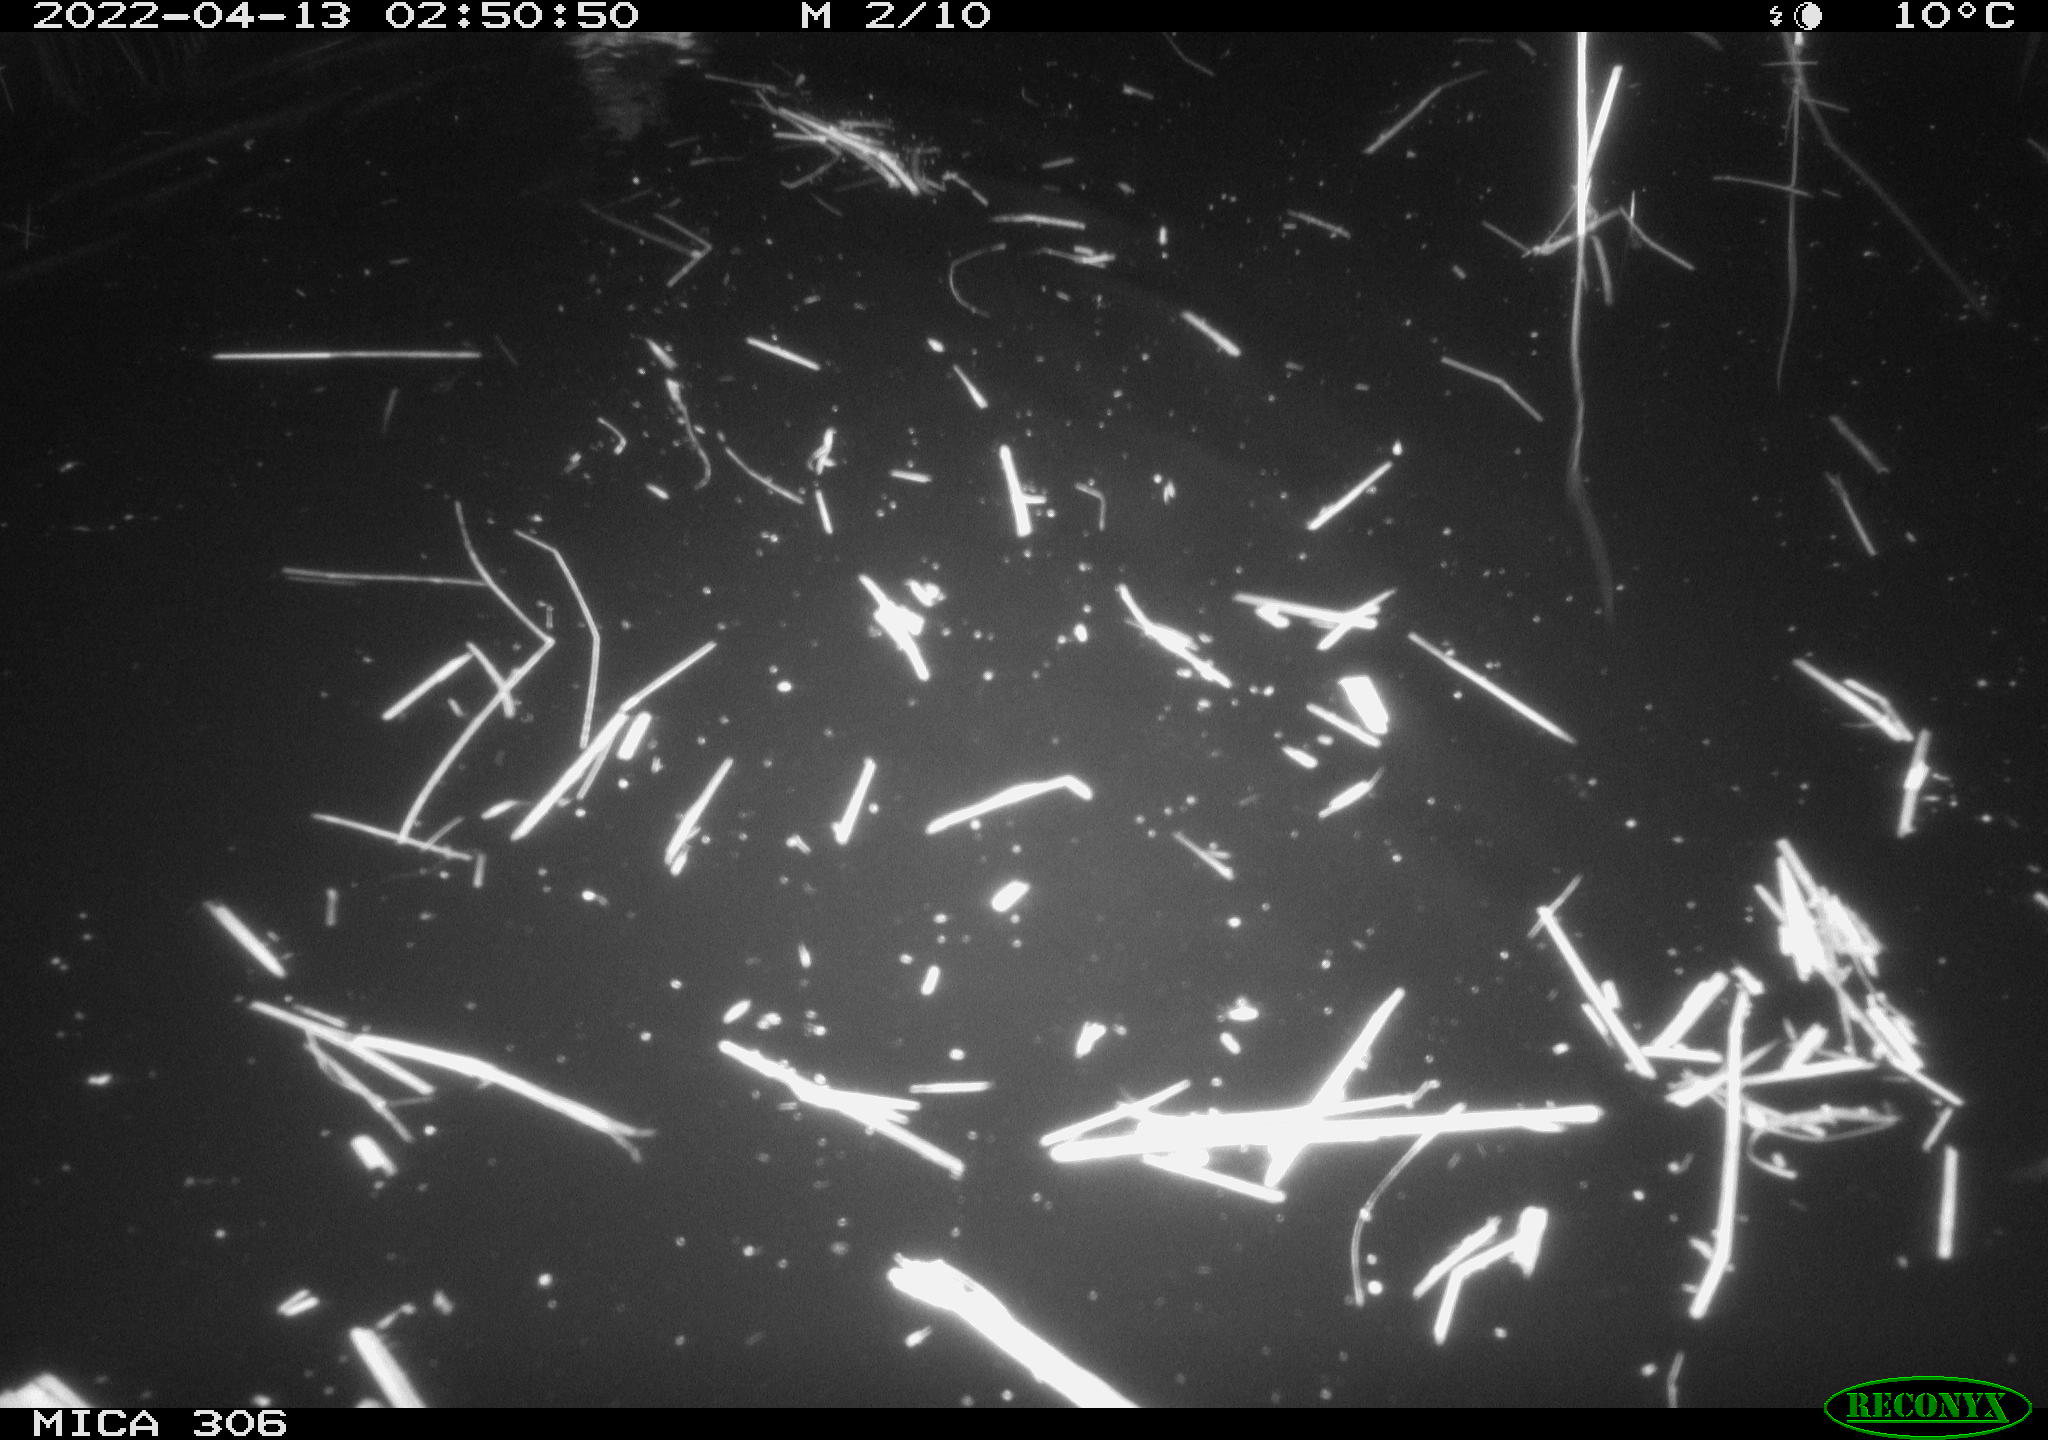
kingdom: Animalia
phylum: Chordata
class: Aves
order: Anseriformes
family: Anatidae
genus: Anas
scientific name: Anas platyrhynchos
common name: Mallard
